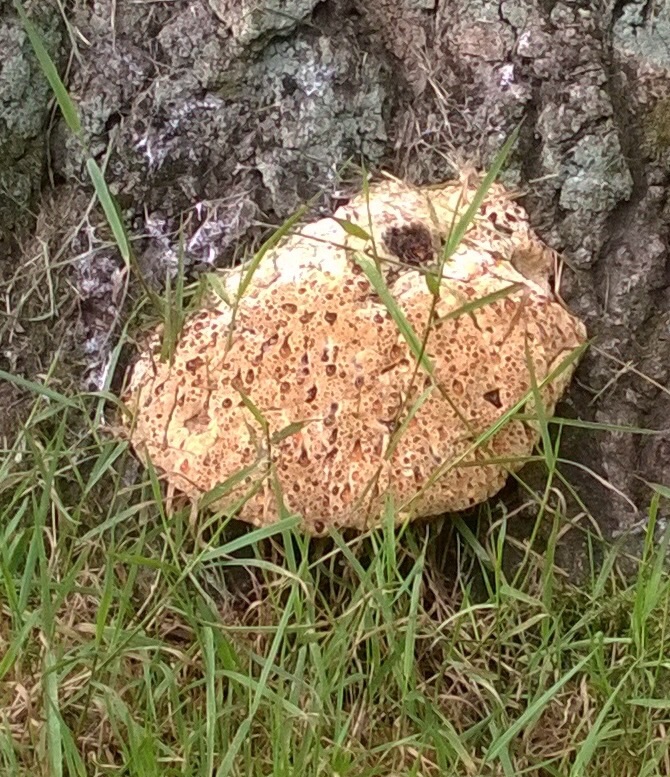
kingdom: Fungi
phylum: Basidiomycota
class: Agaricomycetes
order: Hymenochaetales
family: Hymenochaetaceae
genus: Pseudoinonotus
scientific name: Pseudoinonotus dryadeus
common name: ege-spejlporesvamp
